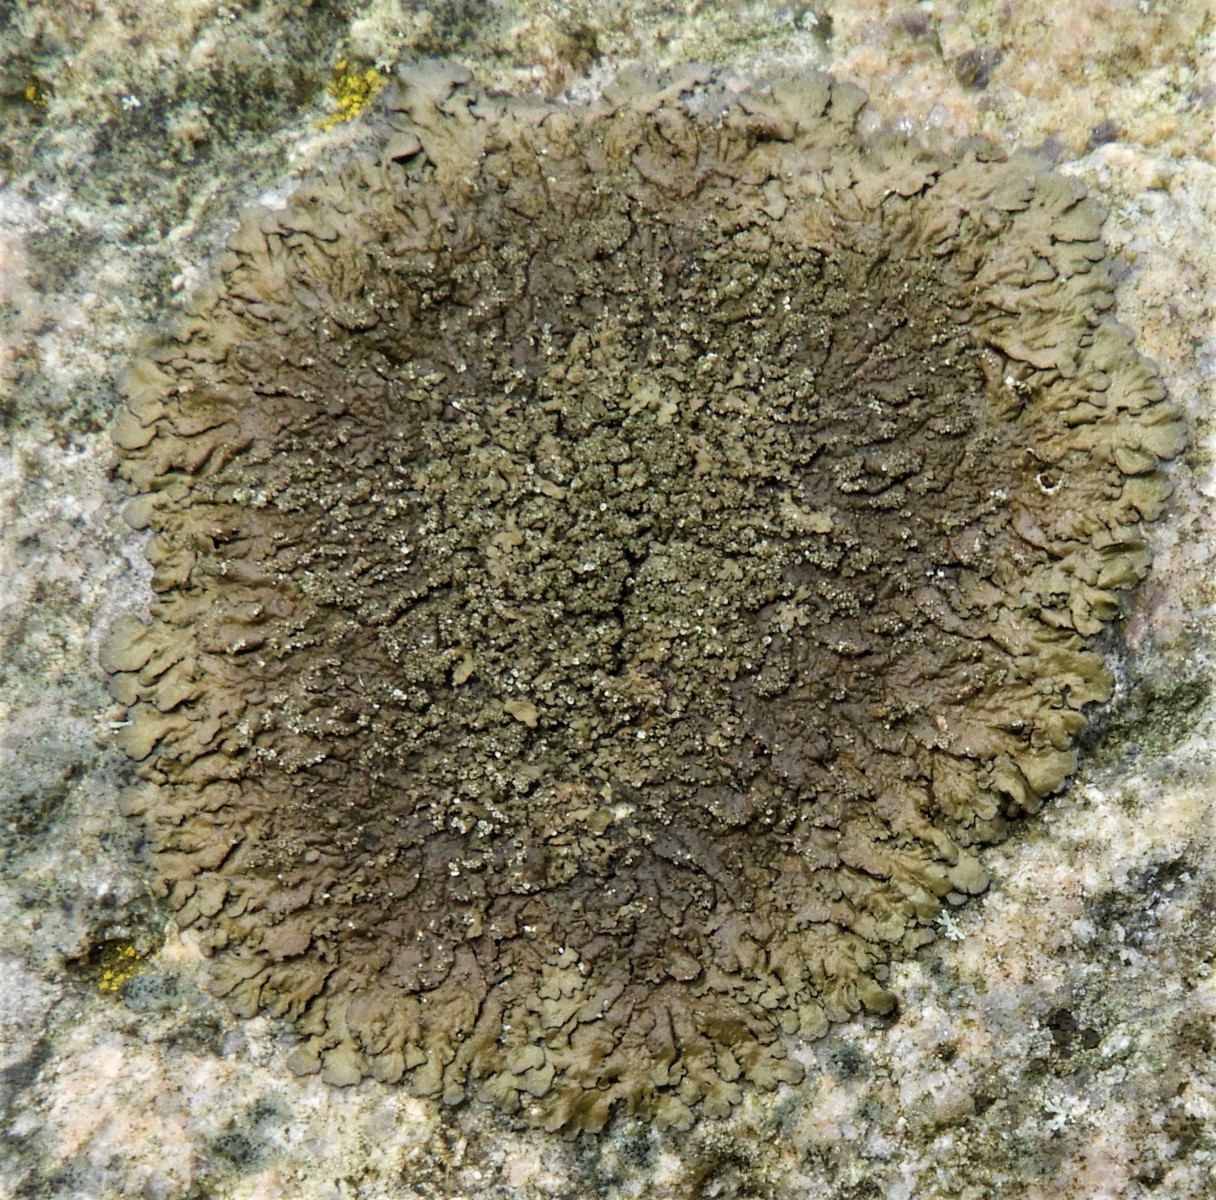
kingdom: Fungi
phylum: Ascomycota
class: Lecanoromycetes
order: Lecanorales
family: Parmeliaceae
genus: Xanthoparmelia
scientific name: Xanthoparmelia verruculifera
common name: småknoppet skållav
